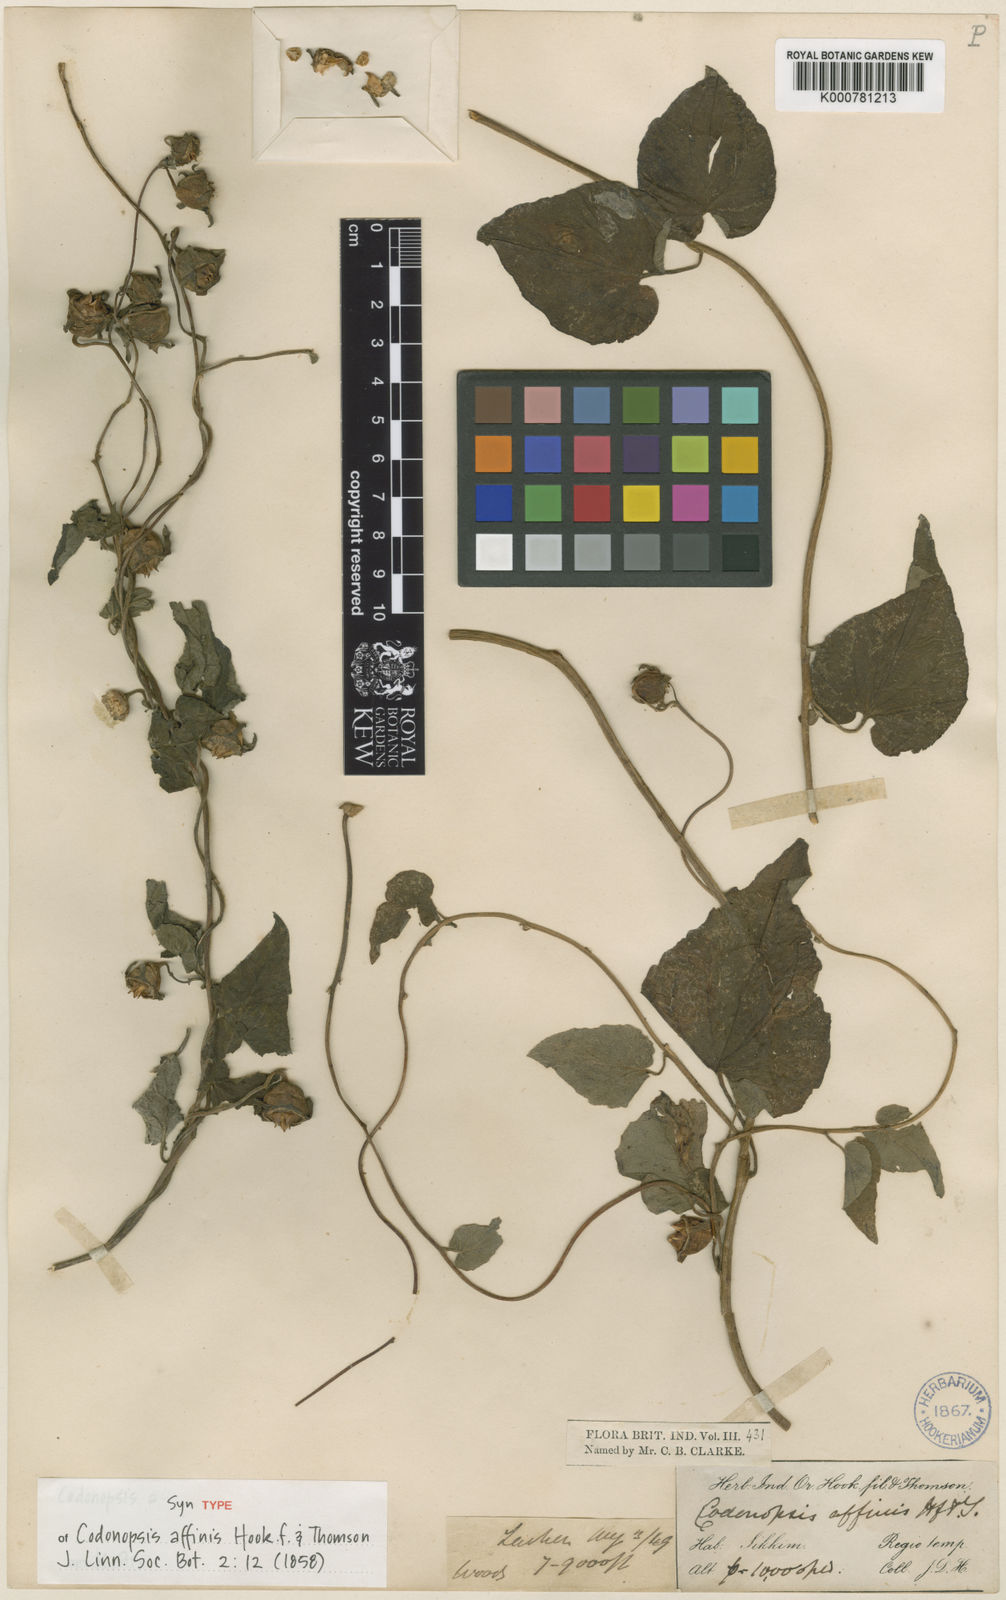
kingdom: Plantae
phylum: Tracheophyta
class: Magnoliopsida
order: Asterales
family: Campanulaceae
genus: Codonopsis
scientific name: Codonopsis affinis
